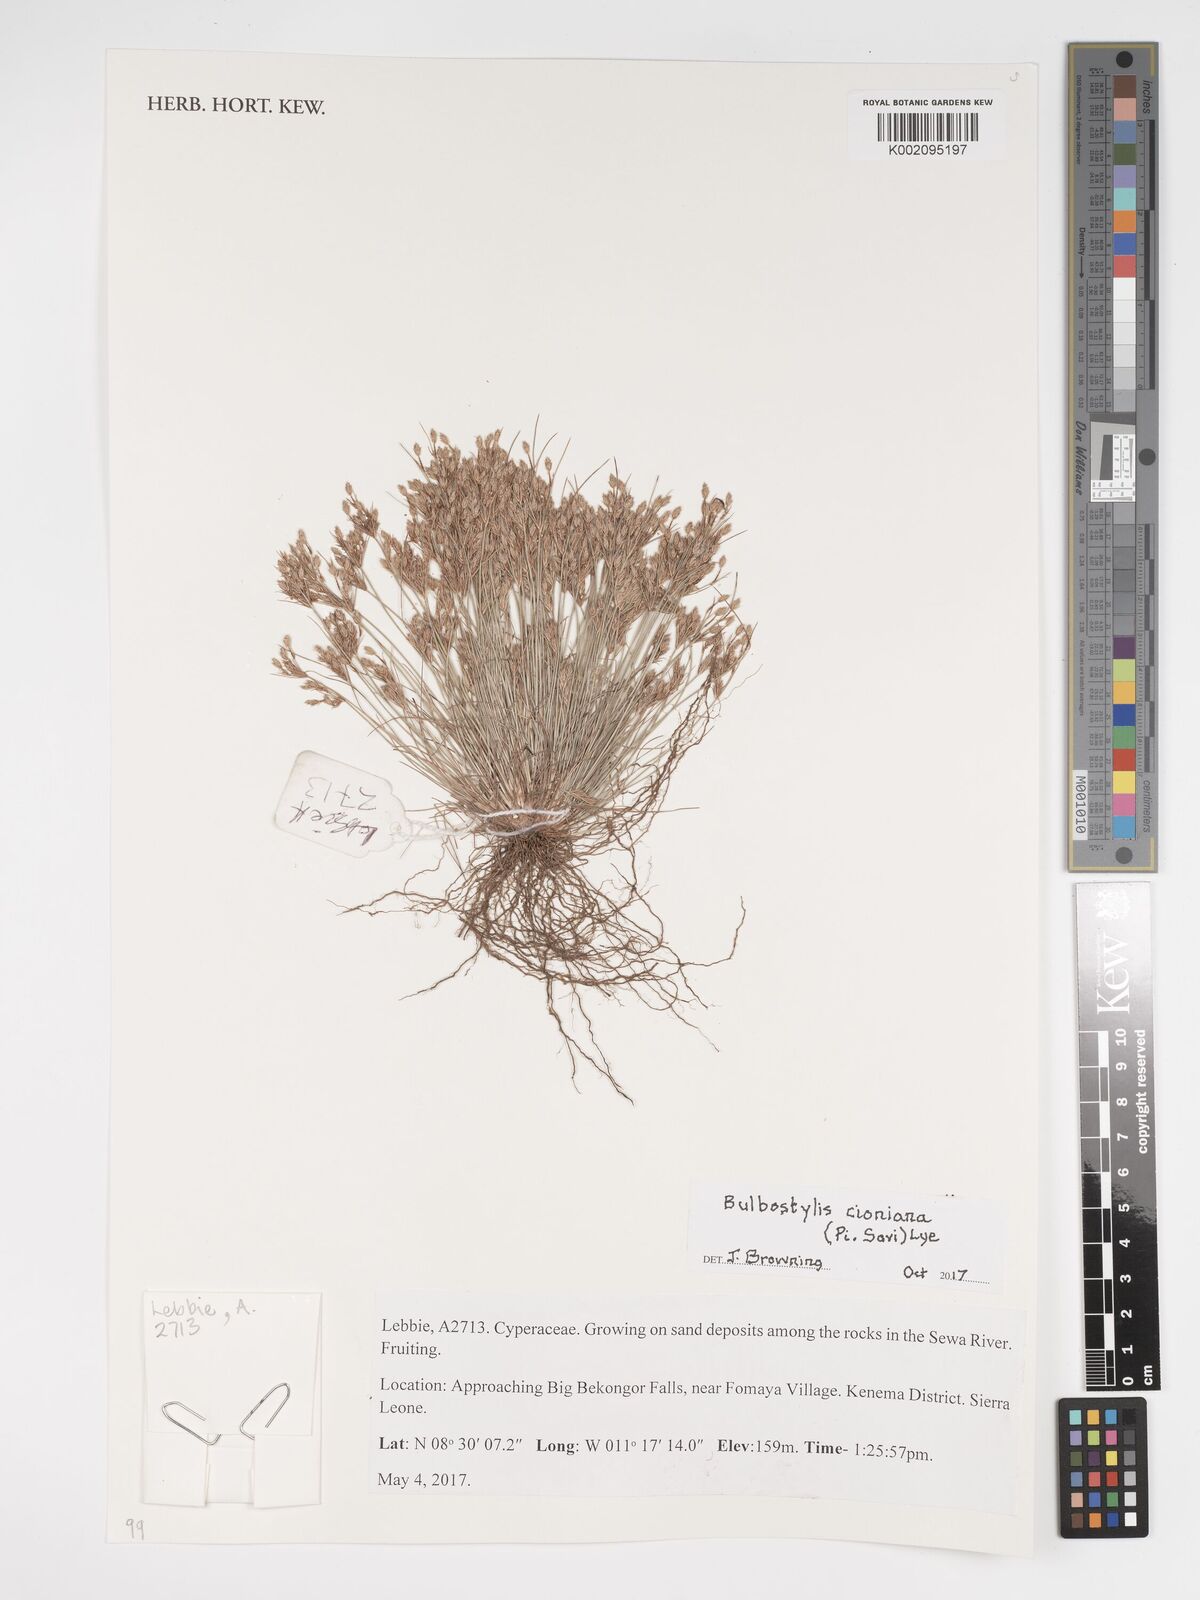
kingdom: Plantae
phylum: Tracheophyta
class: Liliopsida
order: Poales
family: Cyperaceae
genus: Bulbostylis
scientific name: Bulbostylis cioniana
